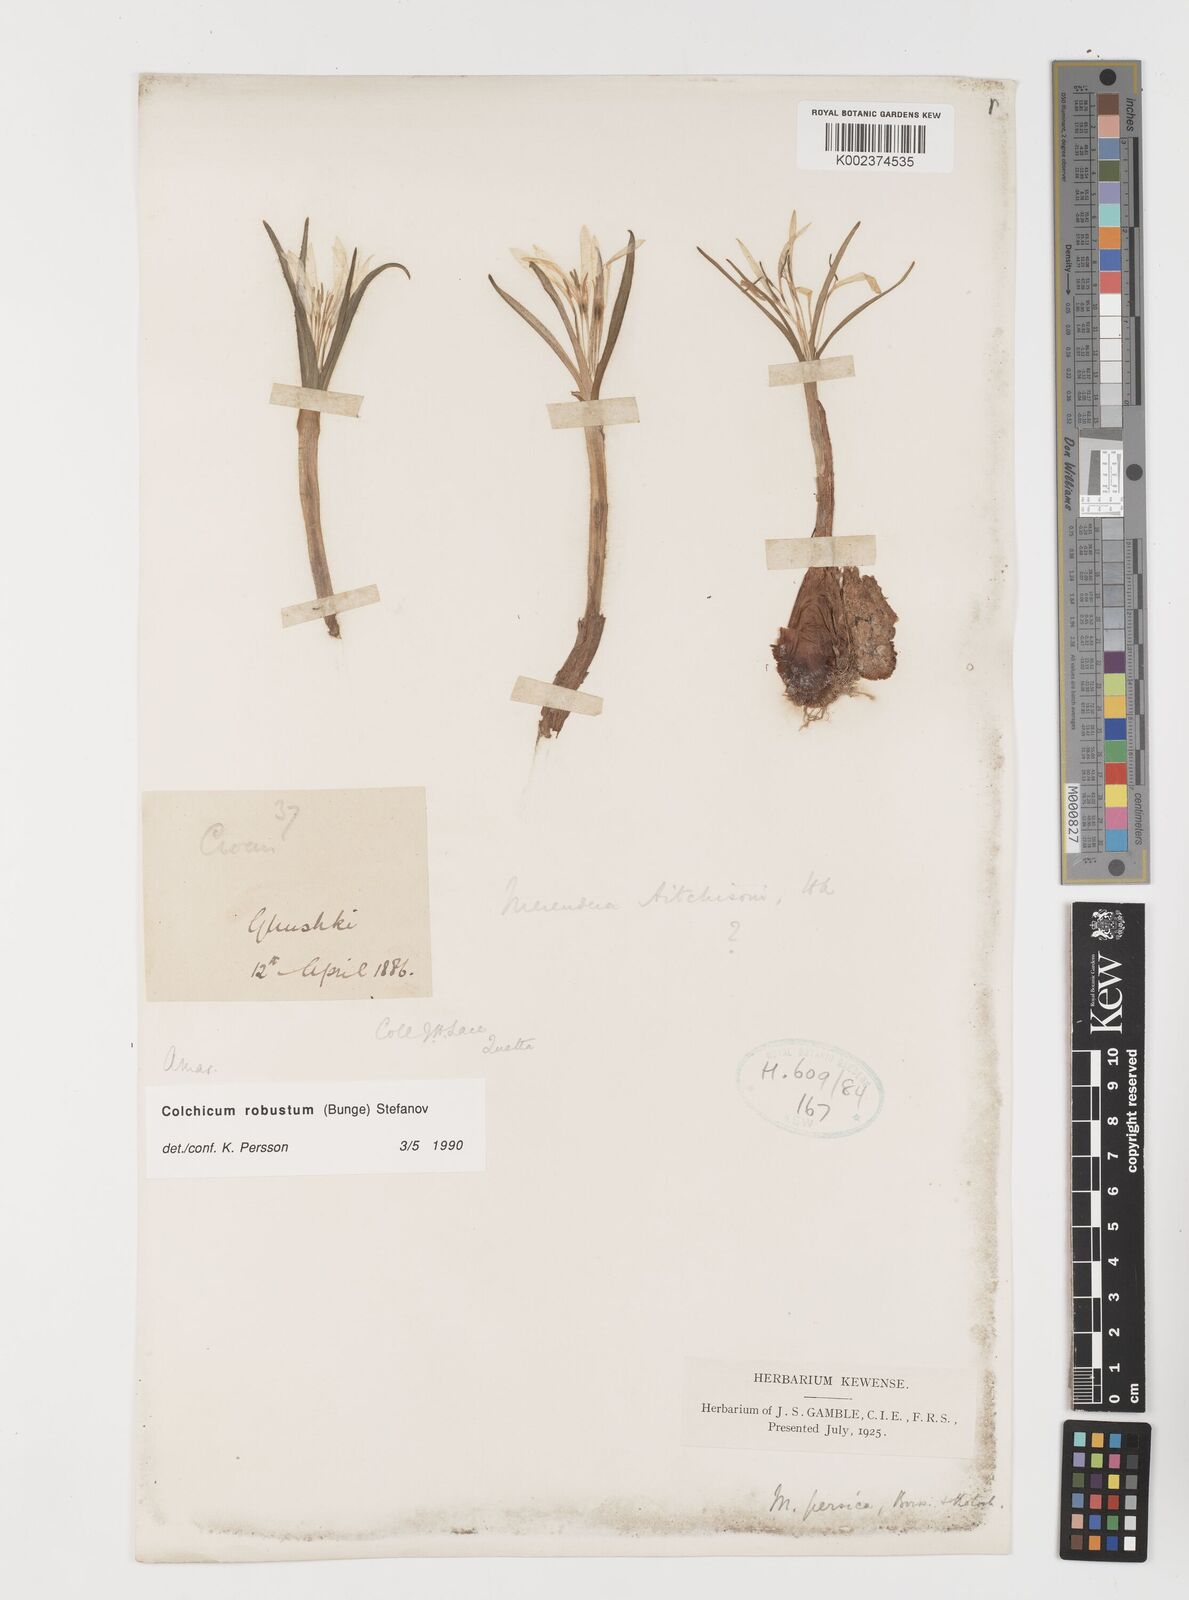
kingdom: Plantae
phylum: Tracheophyta
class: Liliopsida
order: Liliales
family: Colchicaceae
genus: Colchicum
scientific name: Colchicum robustum
